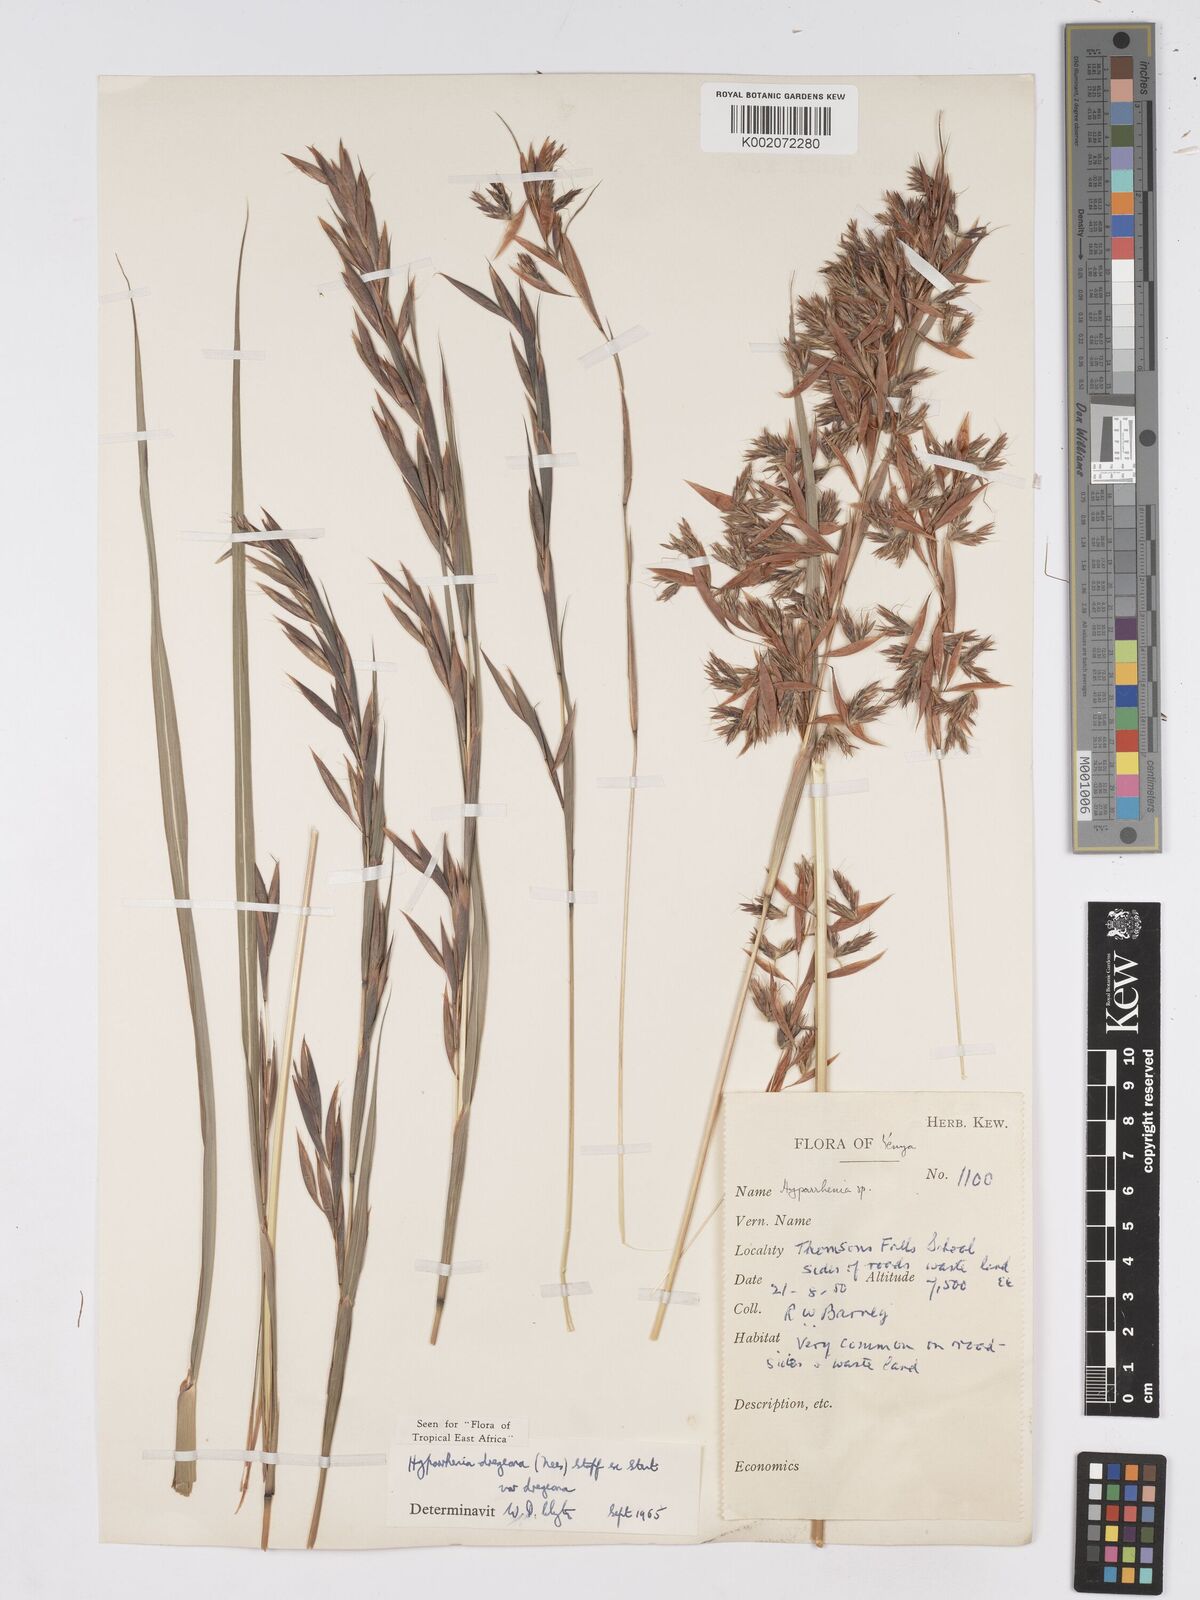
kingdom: Plantae
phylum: Tracheophyta
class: Liliopsida
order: Poales
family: Poaceae
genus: Hyparrhenia
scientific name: Hyparrhenia dregeana
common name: Silky thatching grass
